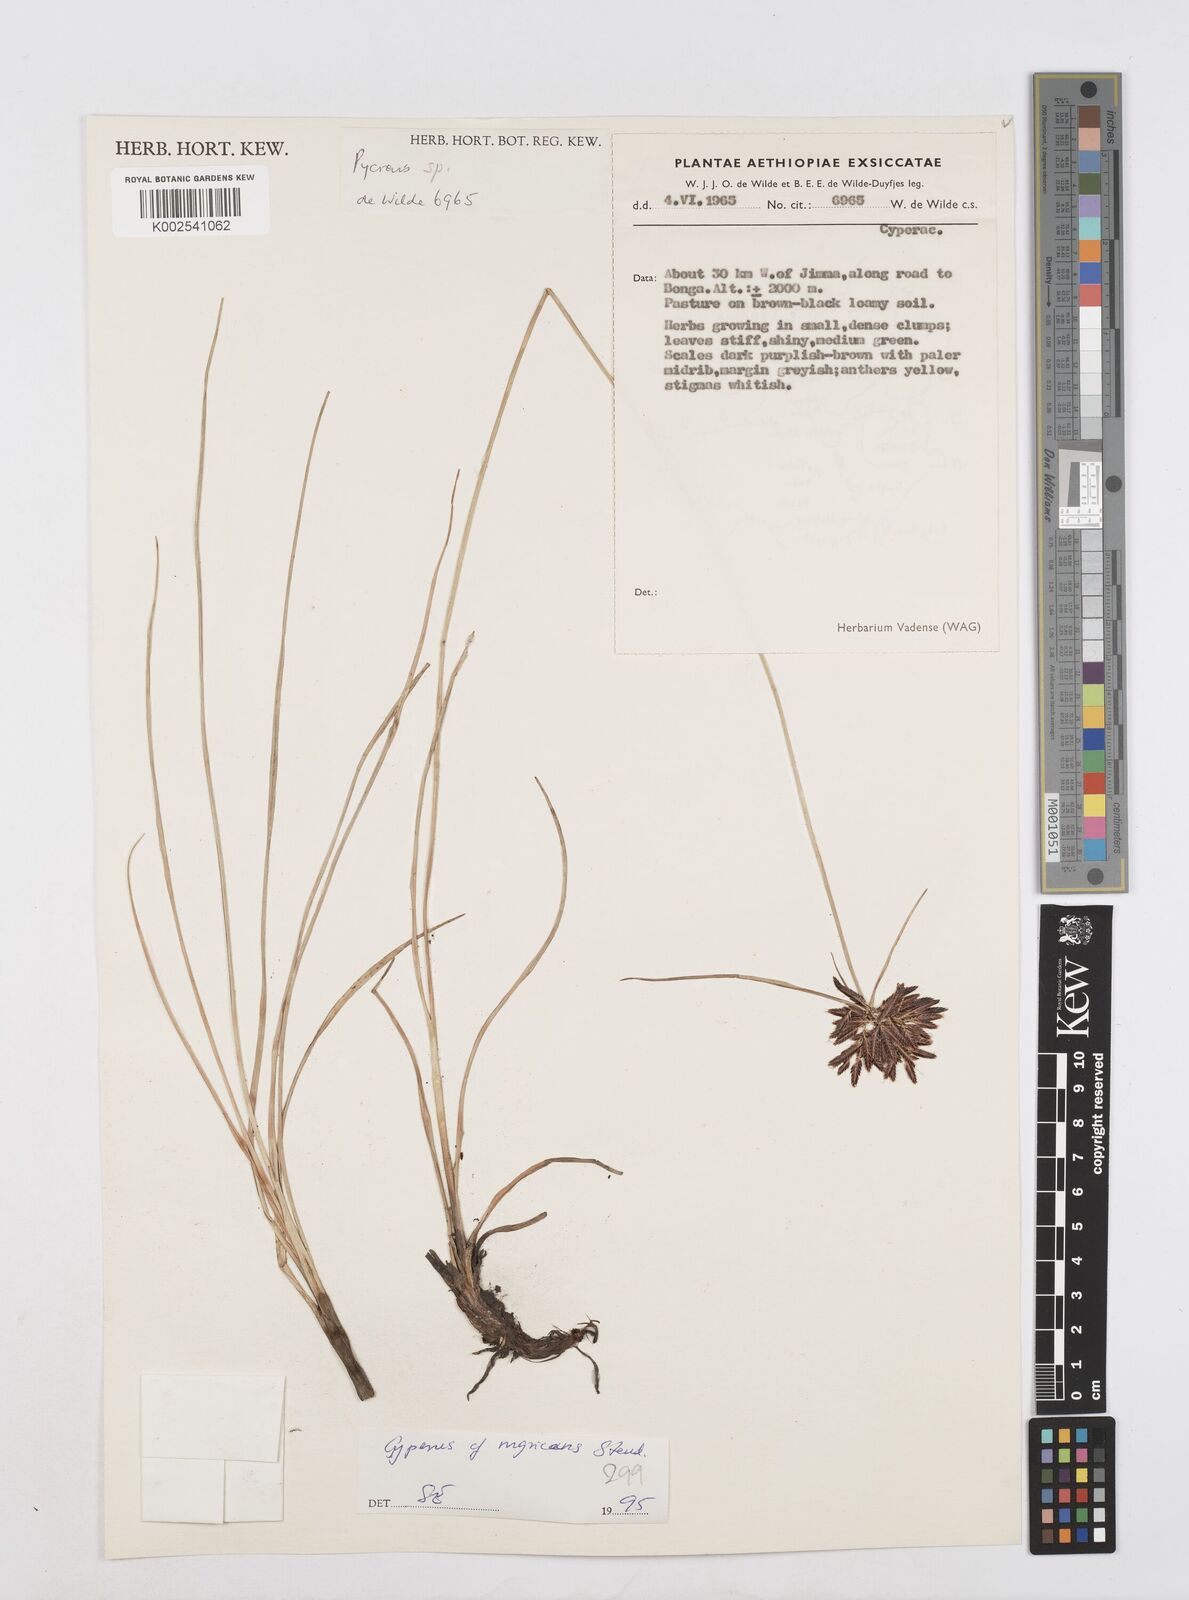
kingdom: Plantae
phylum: Tracheophyta
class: Liliopsida
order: Poales
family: Cyperaceae
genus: Cyperus
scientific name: Cyperus nigricans
